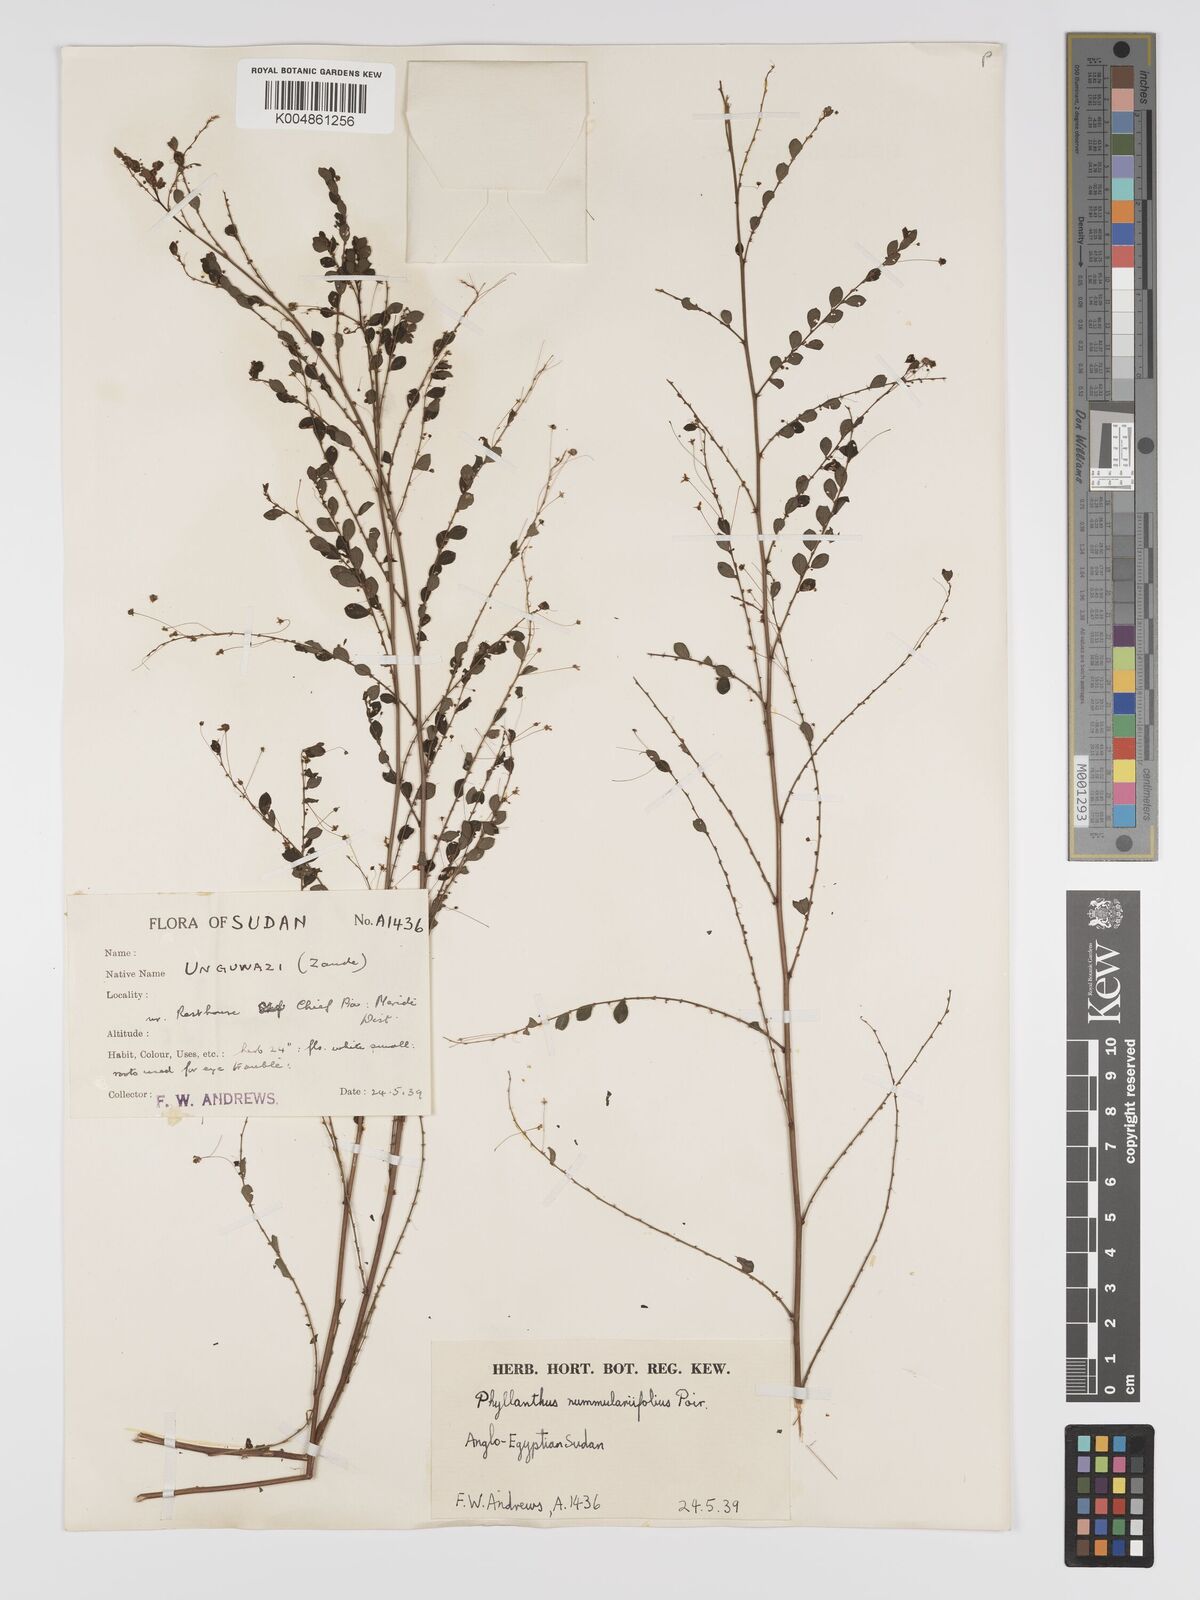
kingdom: Plantae
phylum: Tracheophyta
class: Magnoliopsida
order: Malpighiales
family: Phyllanthaceae
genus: Phyllanthus
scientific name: Phyllanthus nummulariifolius
